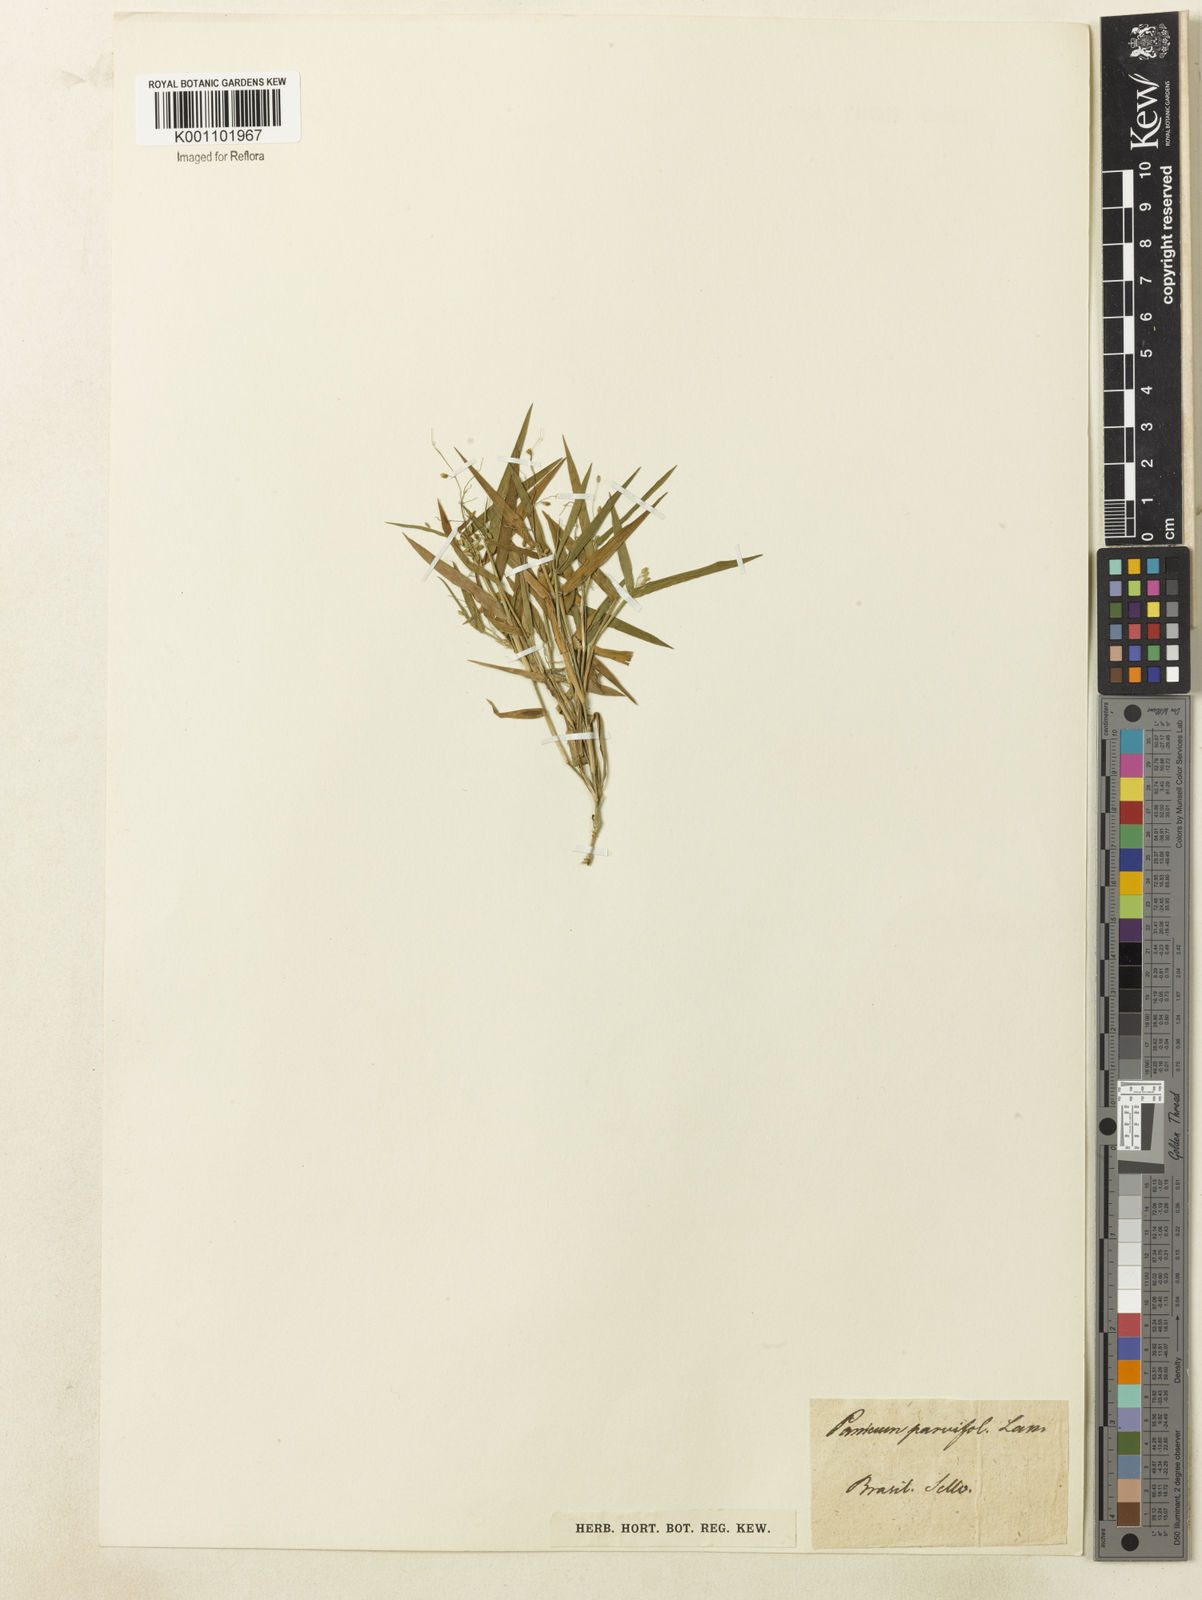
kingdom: Plantae
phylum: Tracheophyta
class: Liliopsida
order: Poales
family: Poaceae
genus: Dichanthelium
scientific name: Dichanthelium sabulorum
